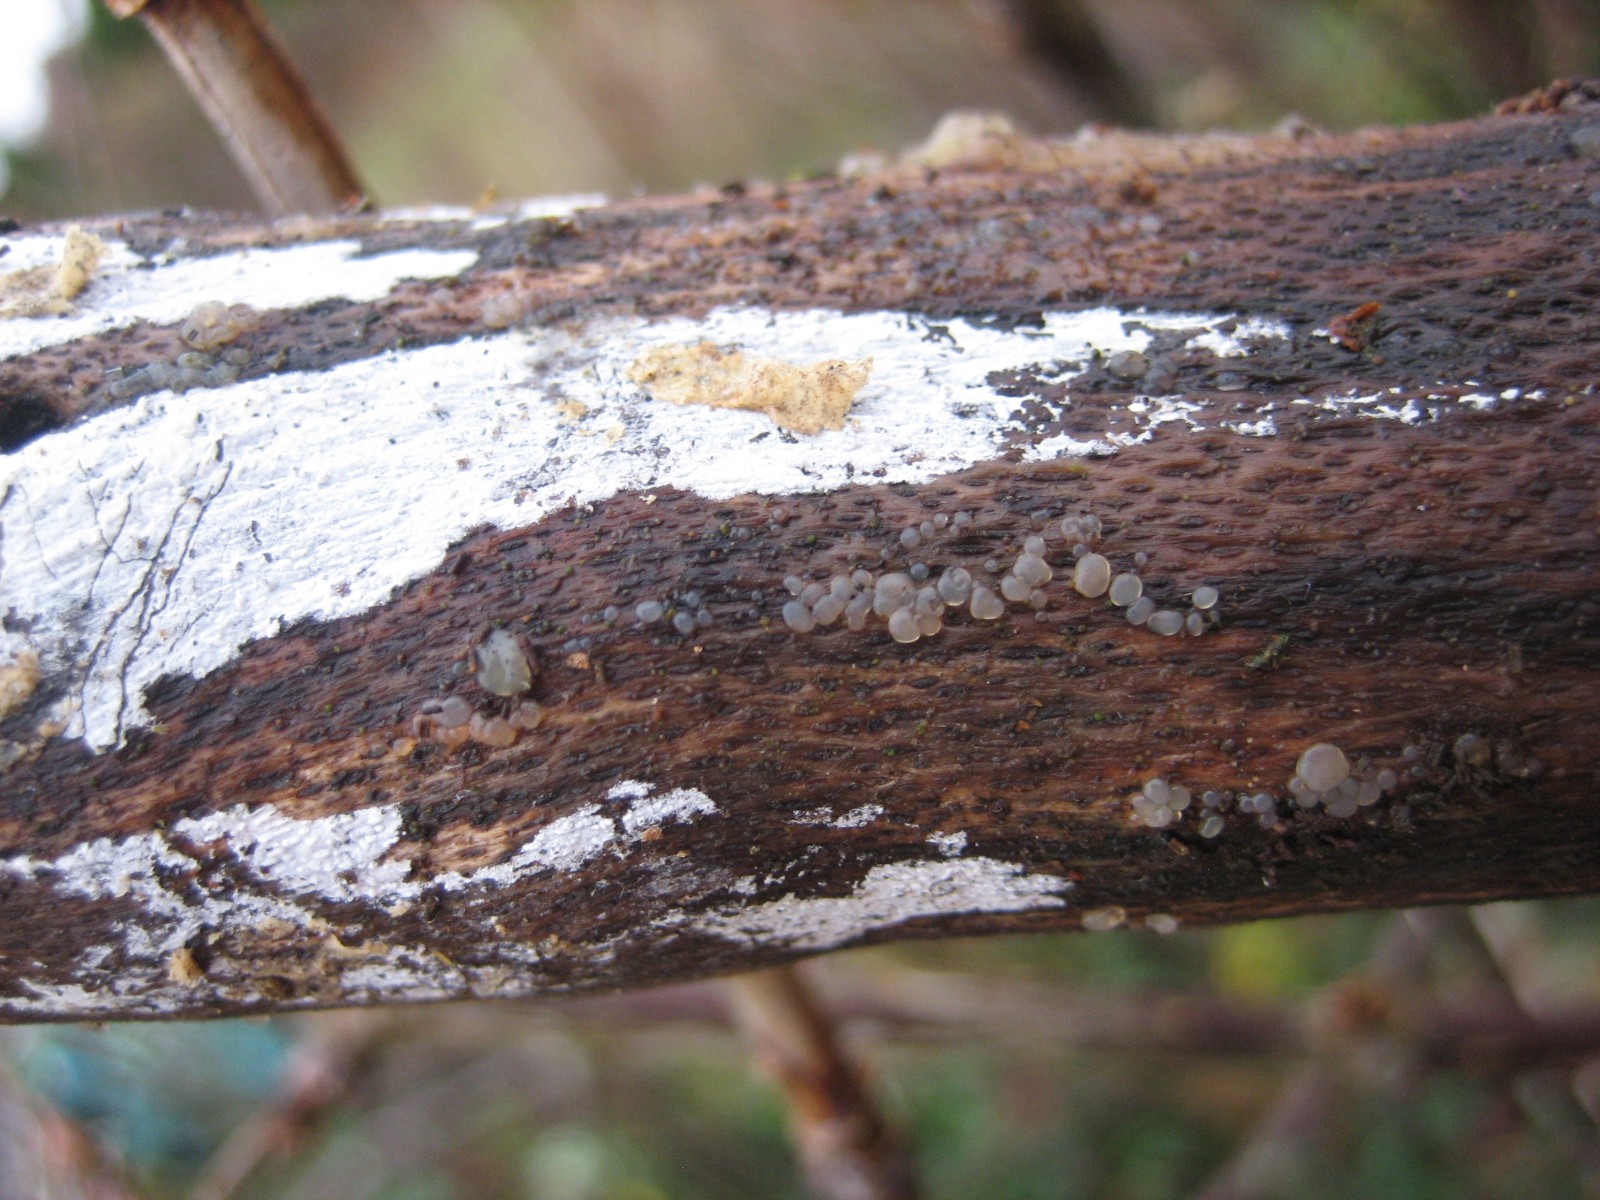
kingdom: Fungi
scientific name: Fungi
